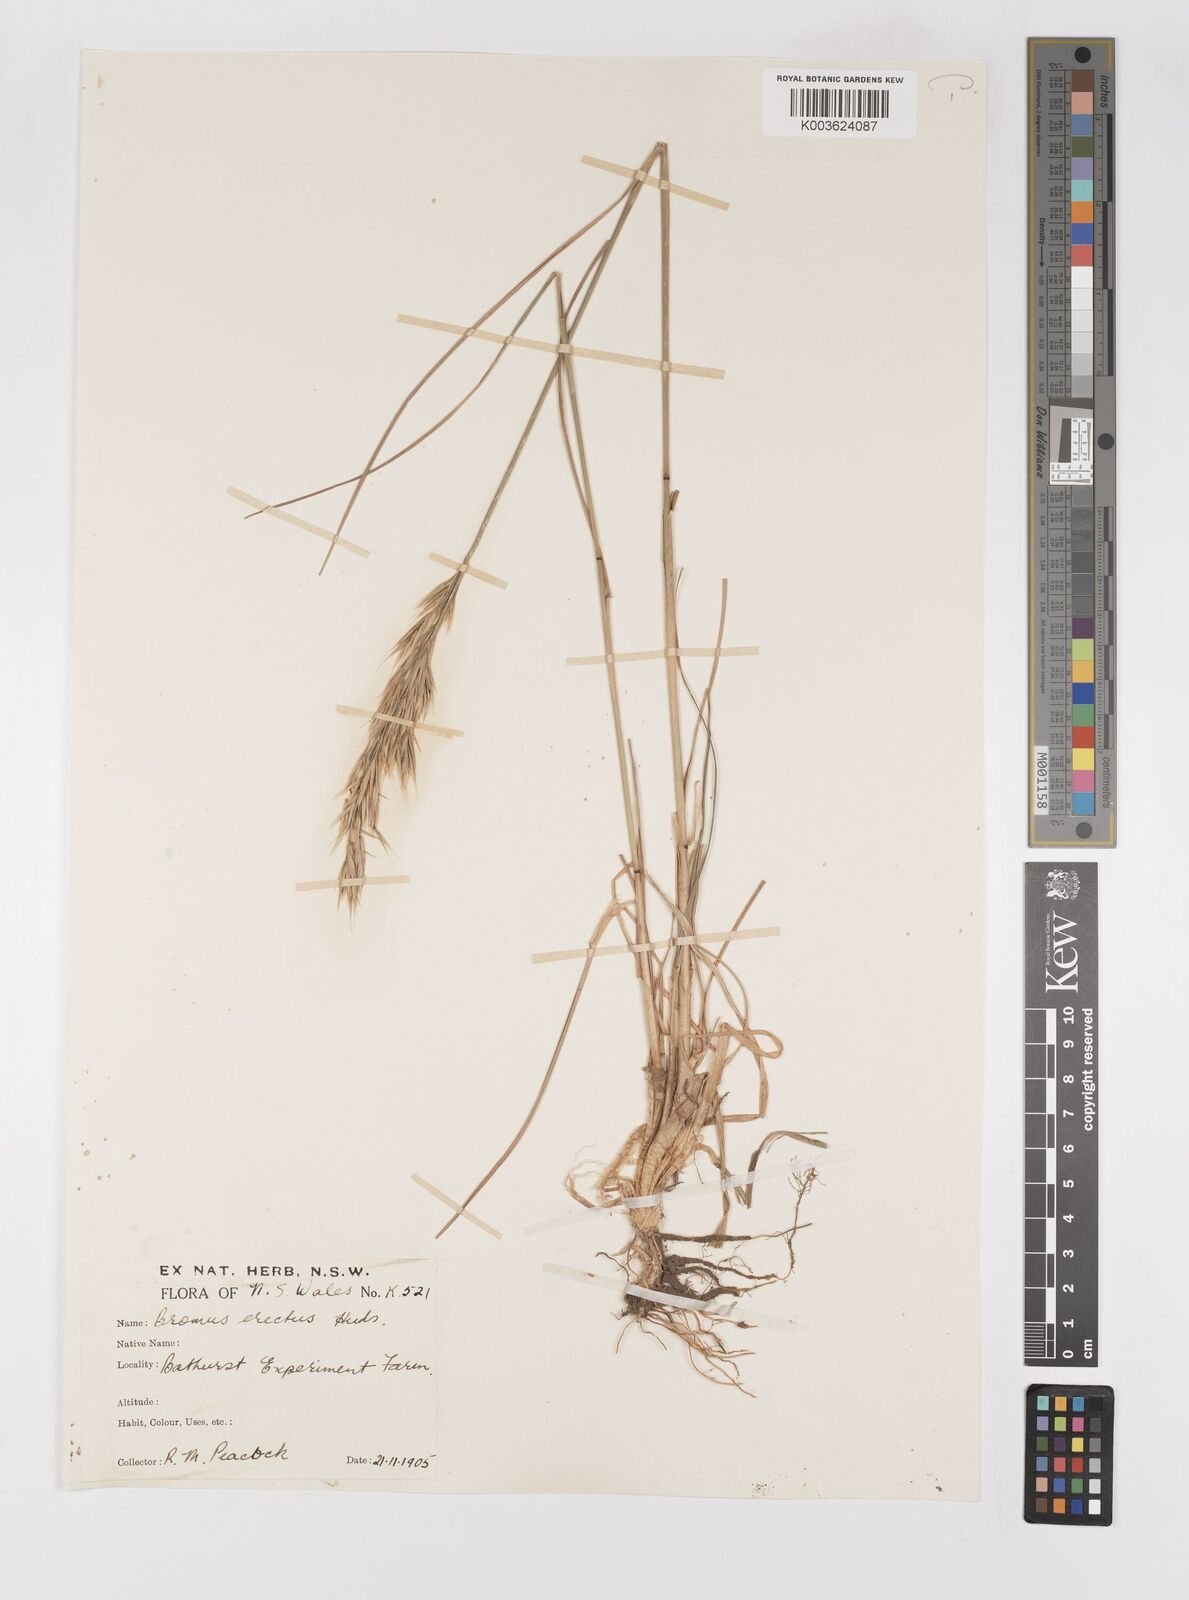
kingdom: Plantae
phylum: Tracheophyta
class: Liliopsida
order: Poales
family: Poaceae
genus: Bromus
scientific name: Bromus erectus
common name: Erect brome
